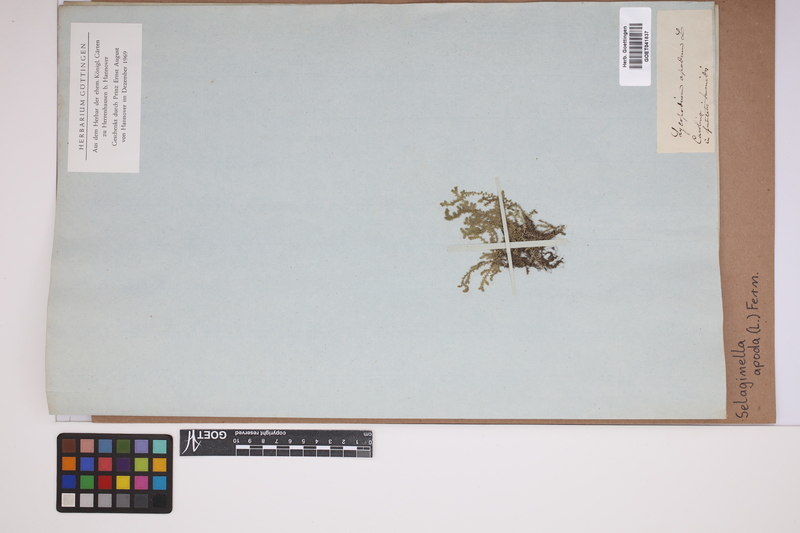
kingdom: Plantae
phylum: Tracheophyta
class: Lycopodiopsida
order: Selaginellales
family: Selaginellaceae
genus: Selaginella
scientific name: Selaginella apoda
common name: Creeping spikemoss
